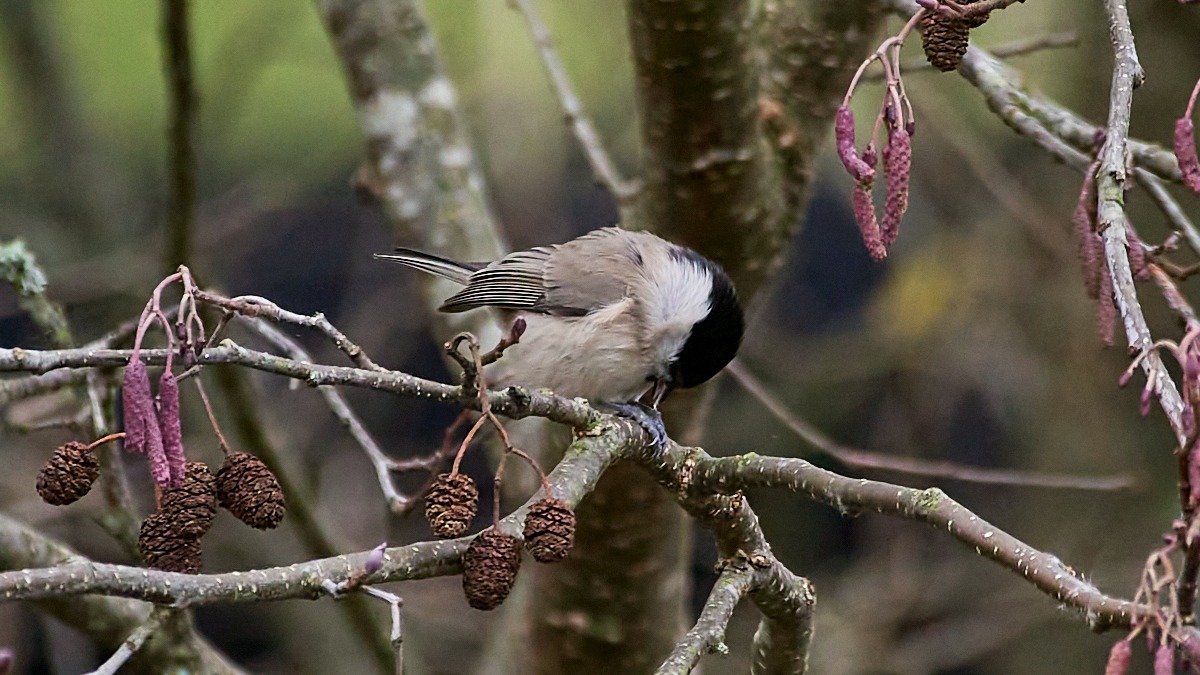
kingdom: Animalia
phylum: Chordata
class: Aves
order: Passeriformes
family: Paridae
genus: Poecile
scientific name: Poecile palustris
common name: Sumpmejse
